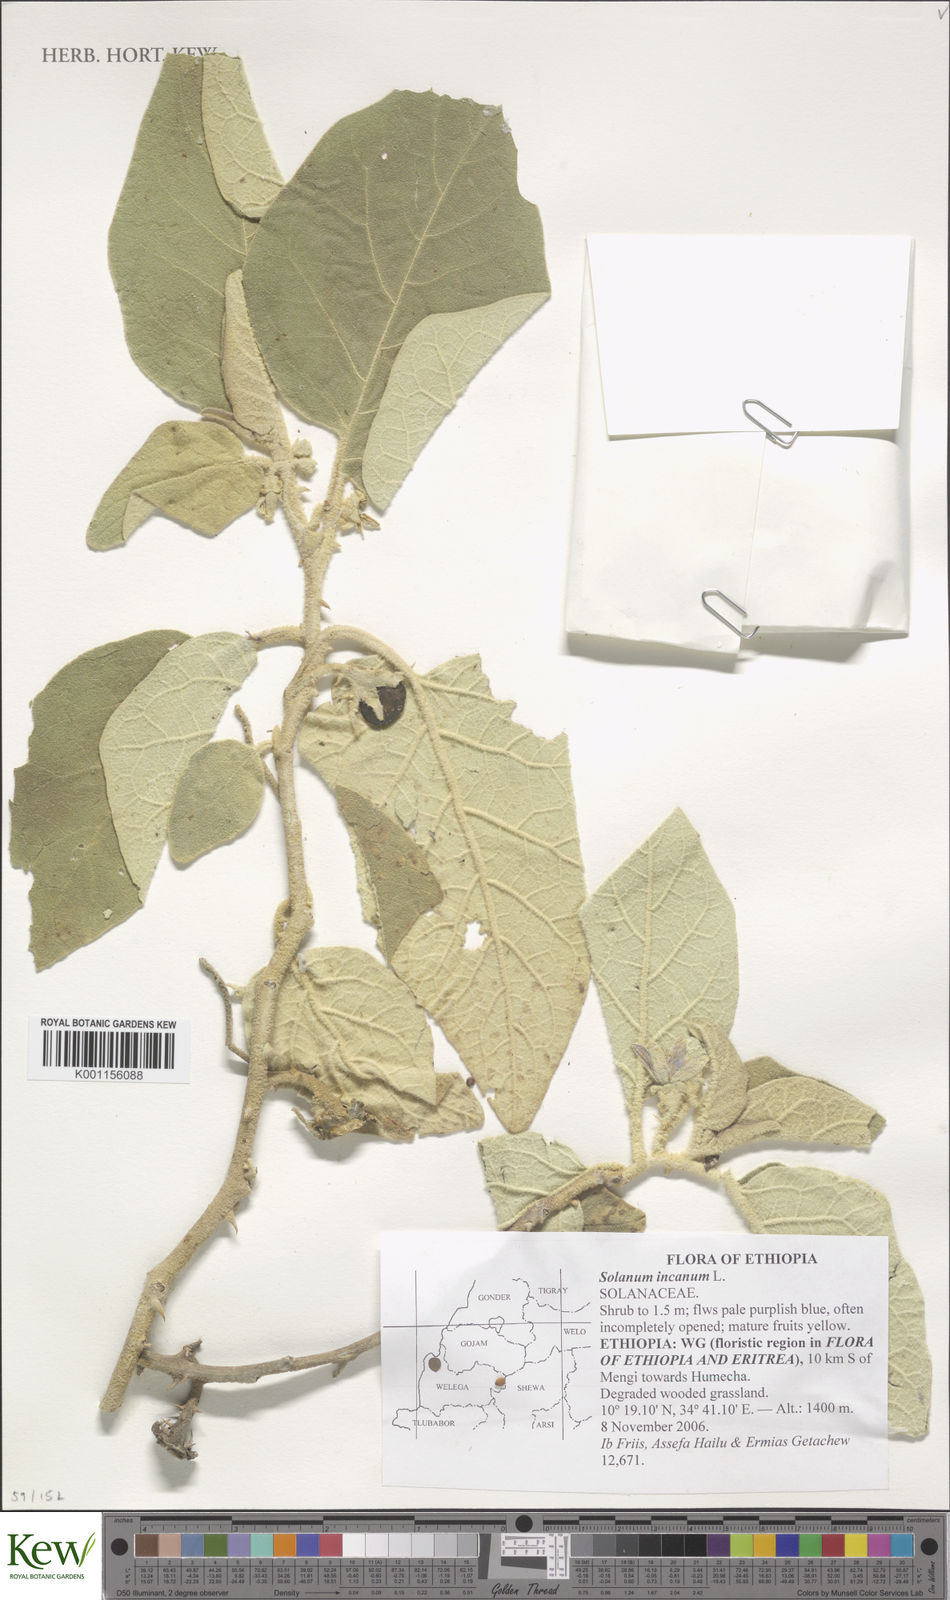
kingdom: Plantae
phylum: Tracheophyta
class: Magnoliopsida
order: Solanales
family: Solanaceae
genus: Solanum
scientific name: Solanum campylacanthum
